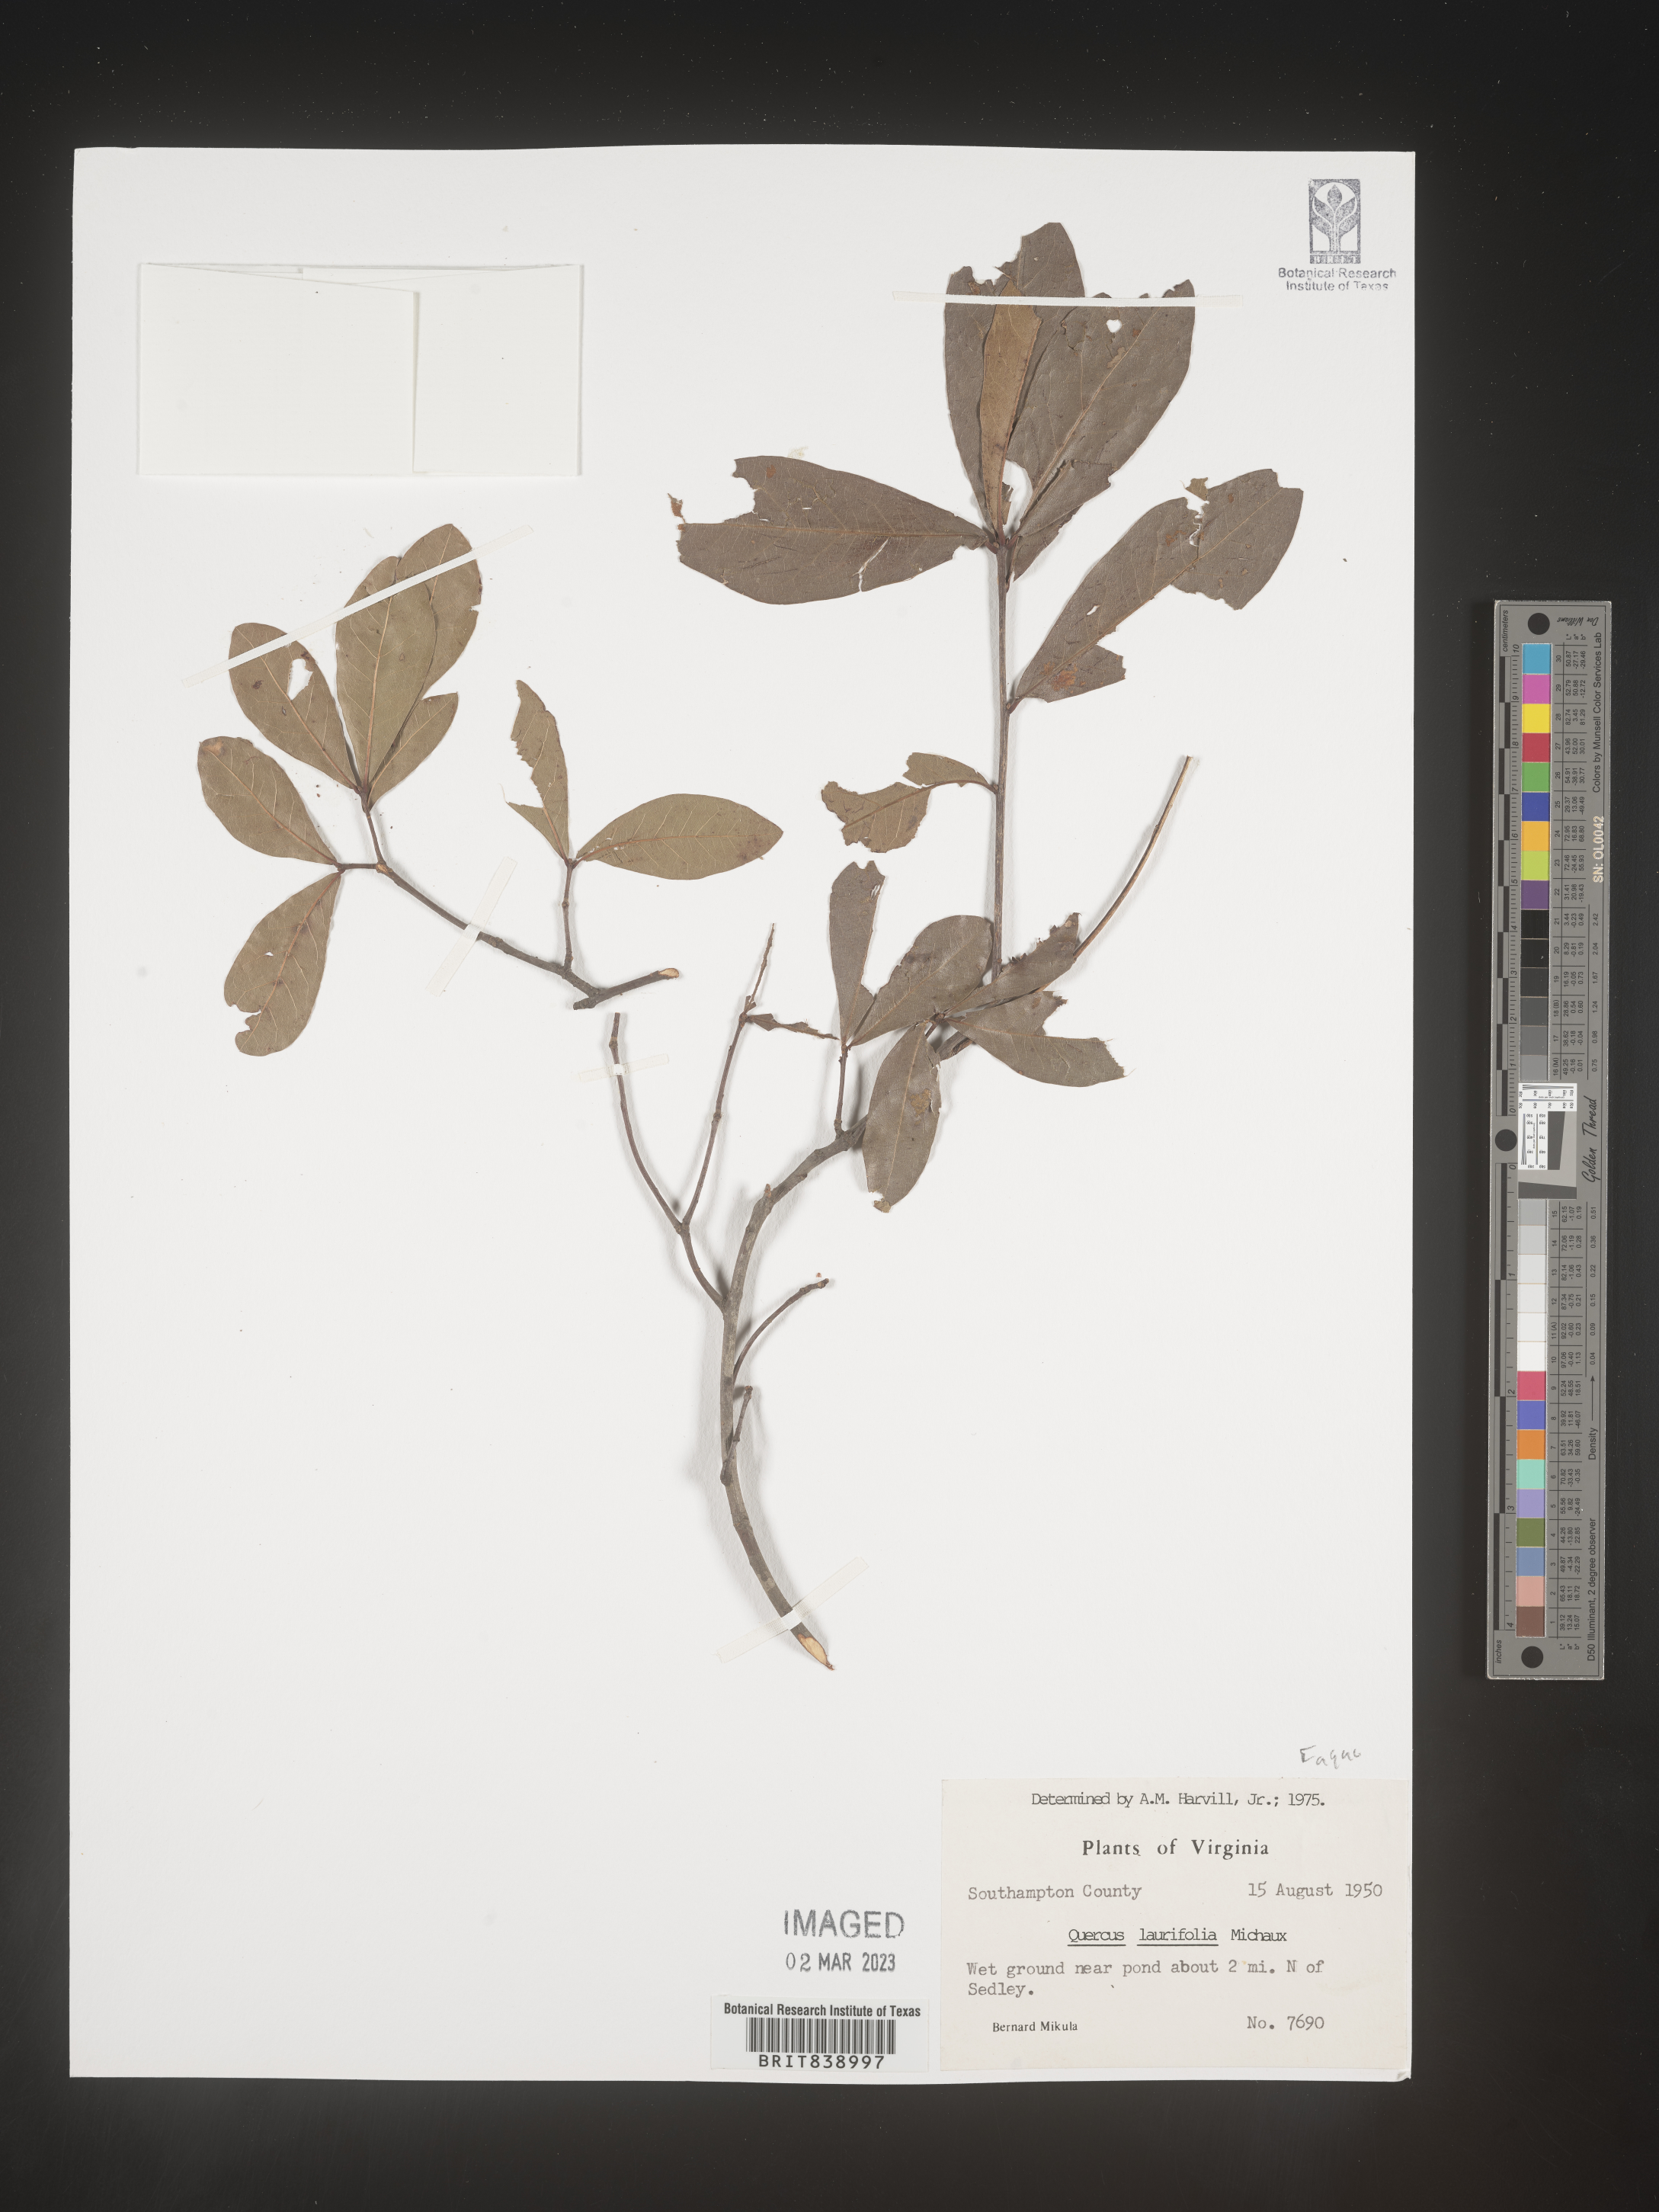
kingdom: Plantae
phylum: Tracheophyta
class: Magnoliopsida
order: Fagales
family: Fagaceae
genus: Quercus
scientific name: Quercus laurifolia
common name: Swamp laurel oak
